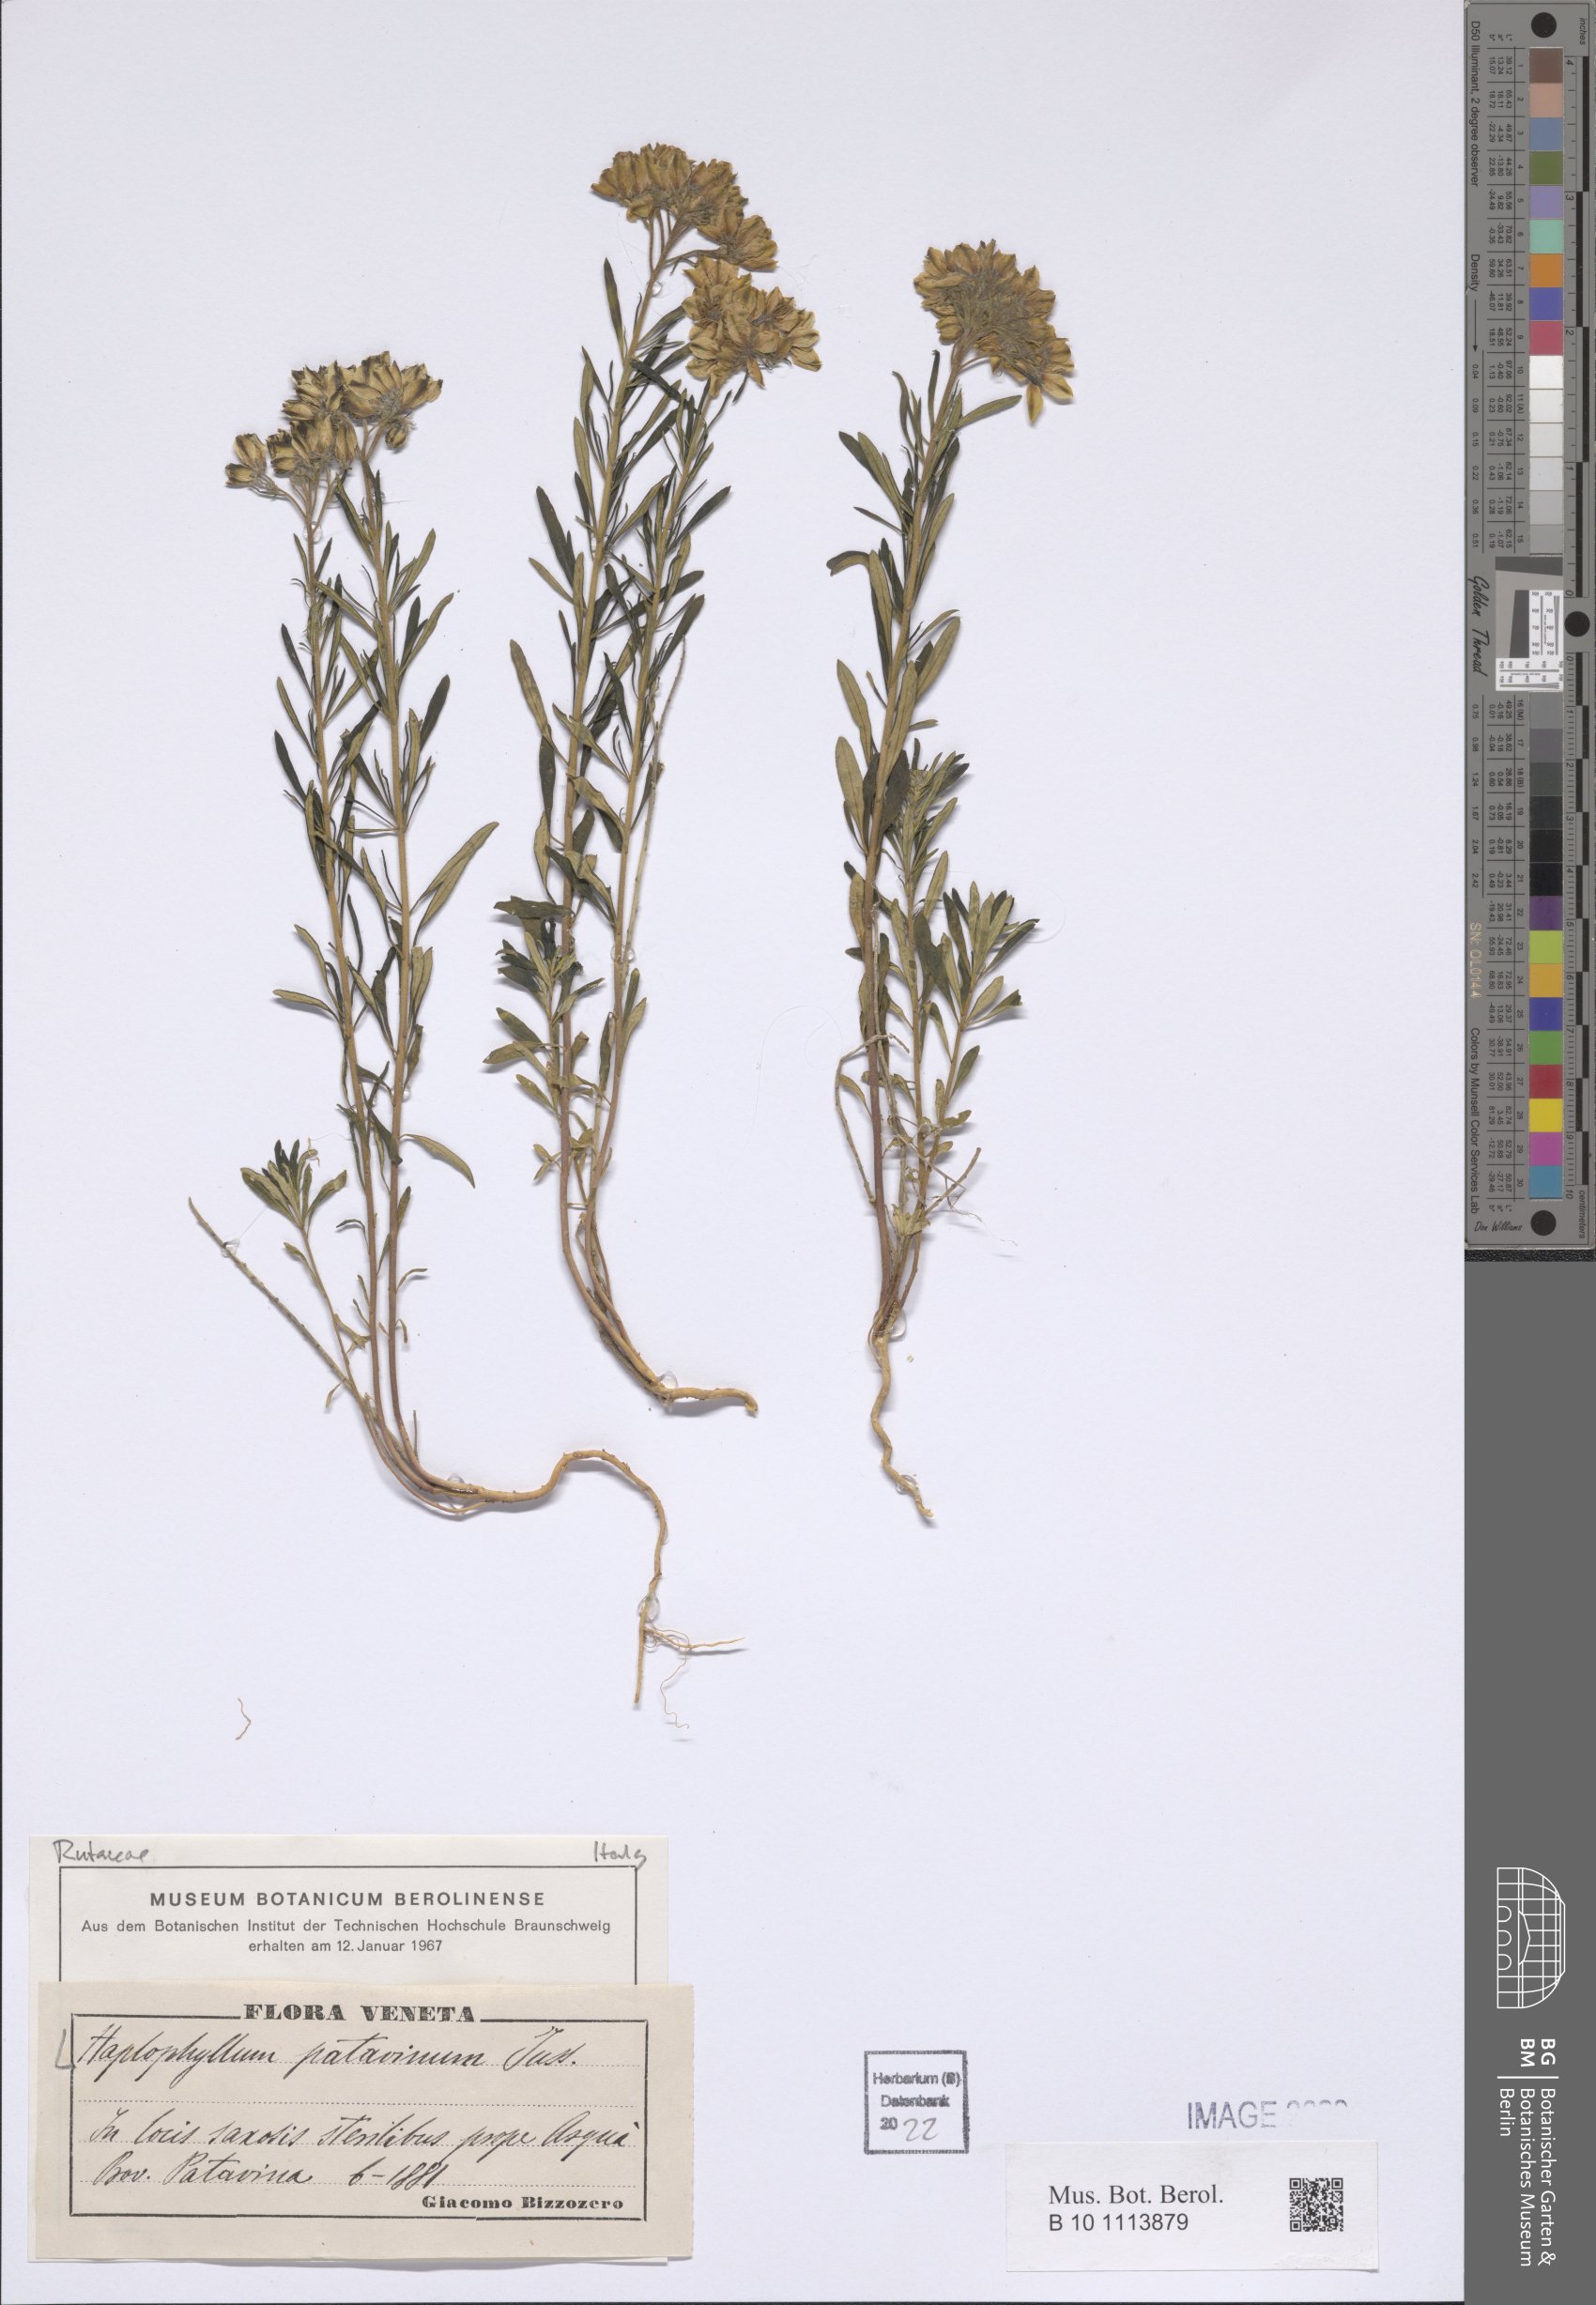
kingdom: Plantae
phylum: Tracheophyta
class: Magnoliopsida
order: Sapindales
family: Rutaceae
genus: Haplophyllum
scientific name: Haplophyllum patavinum
